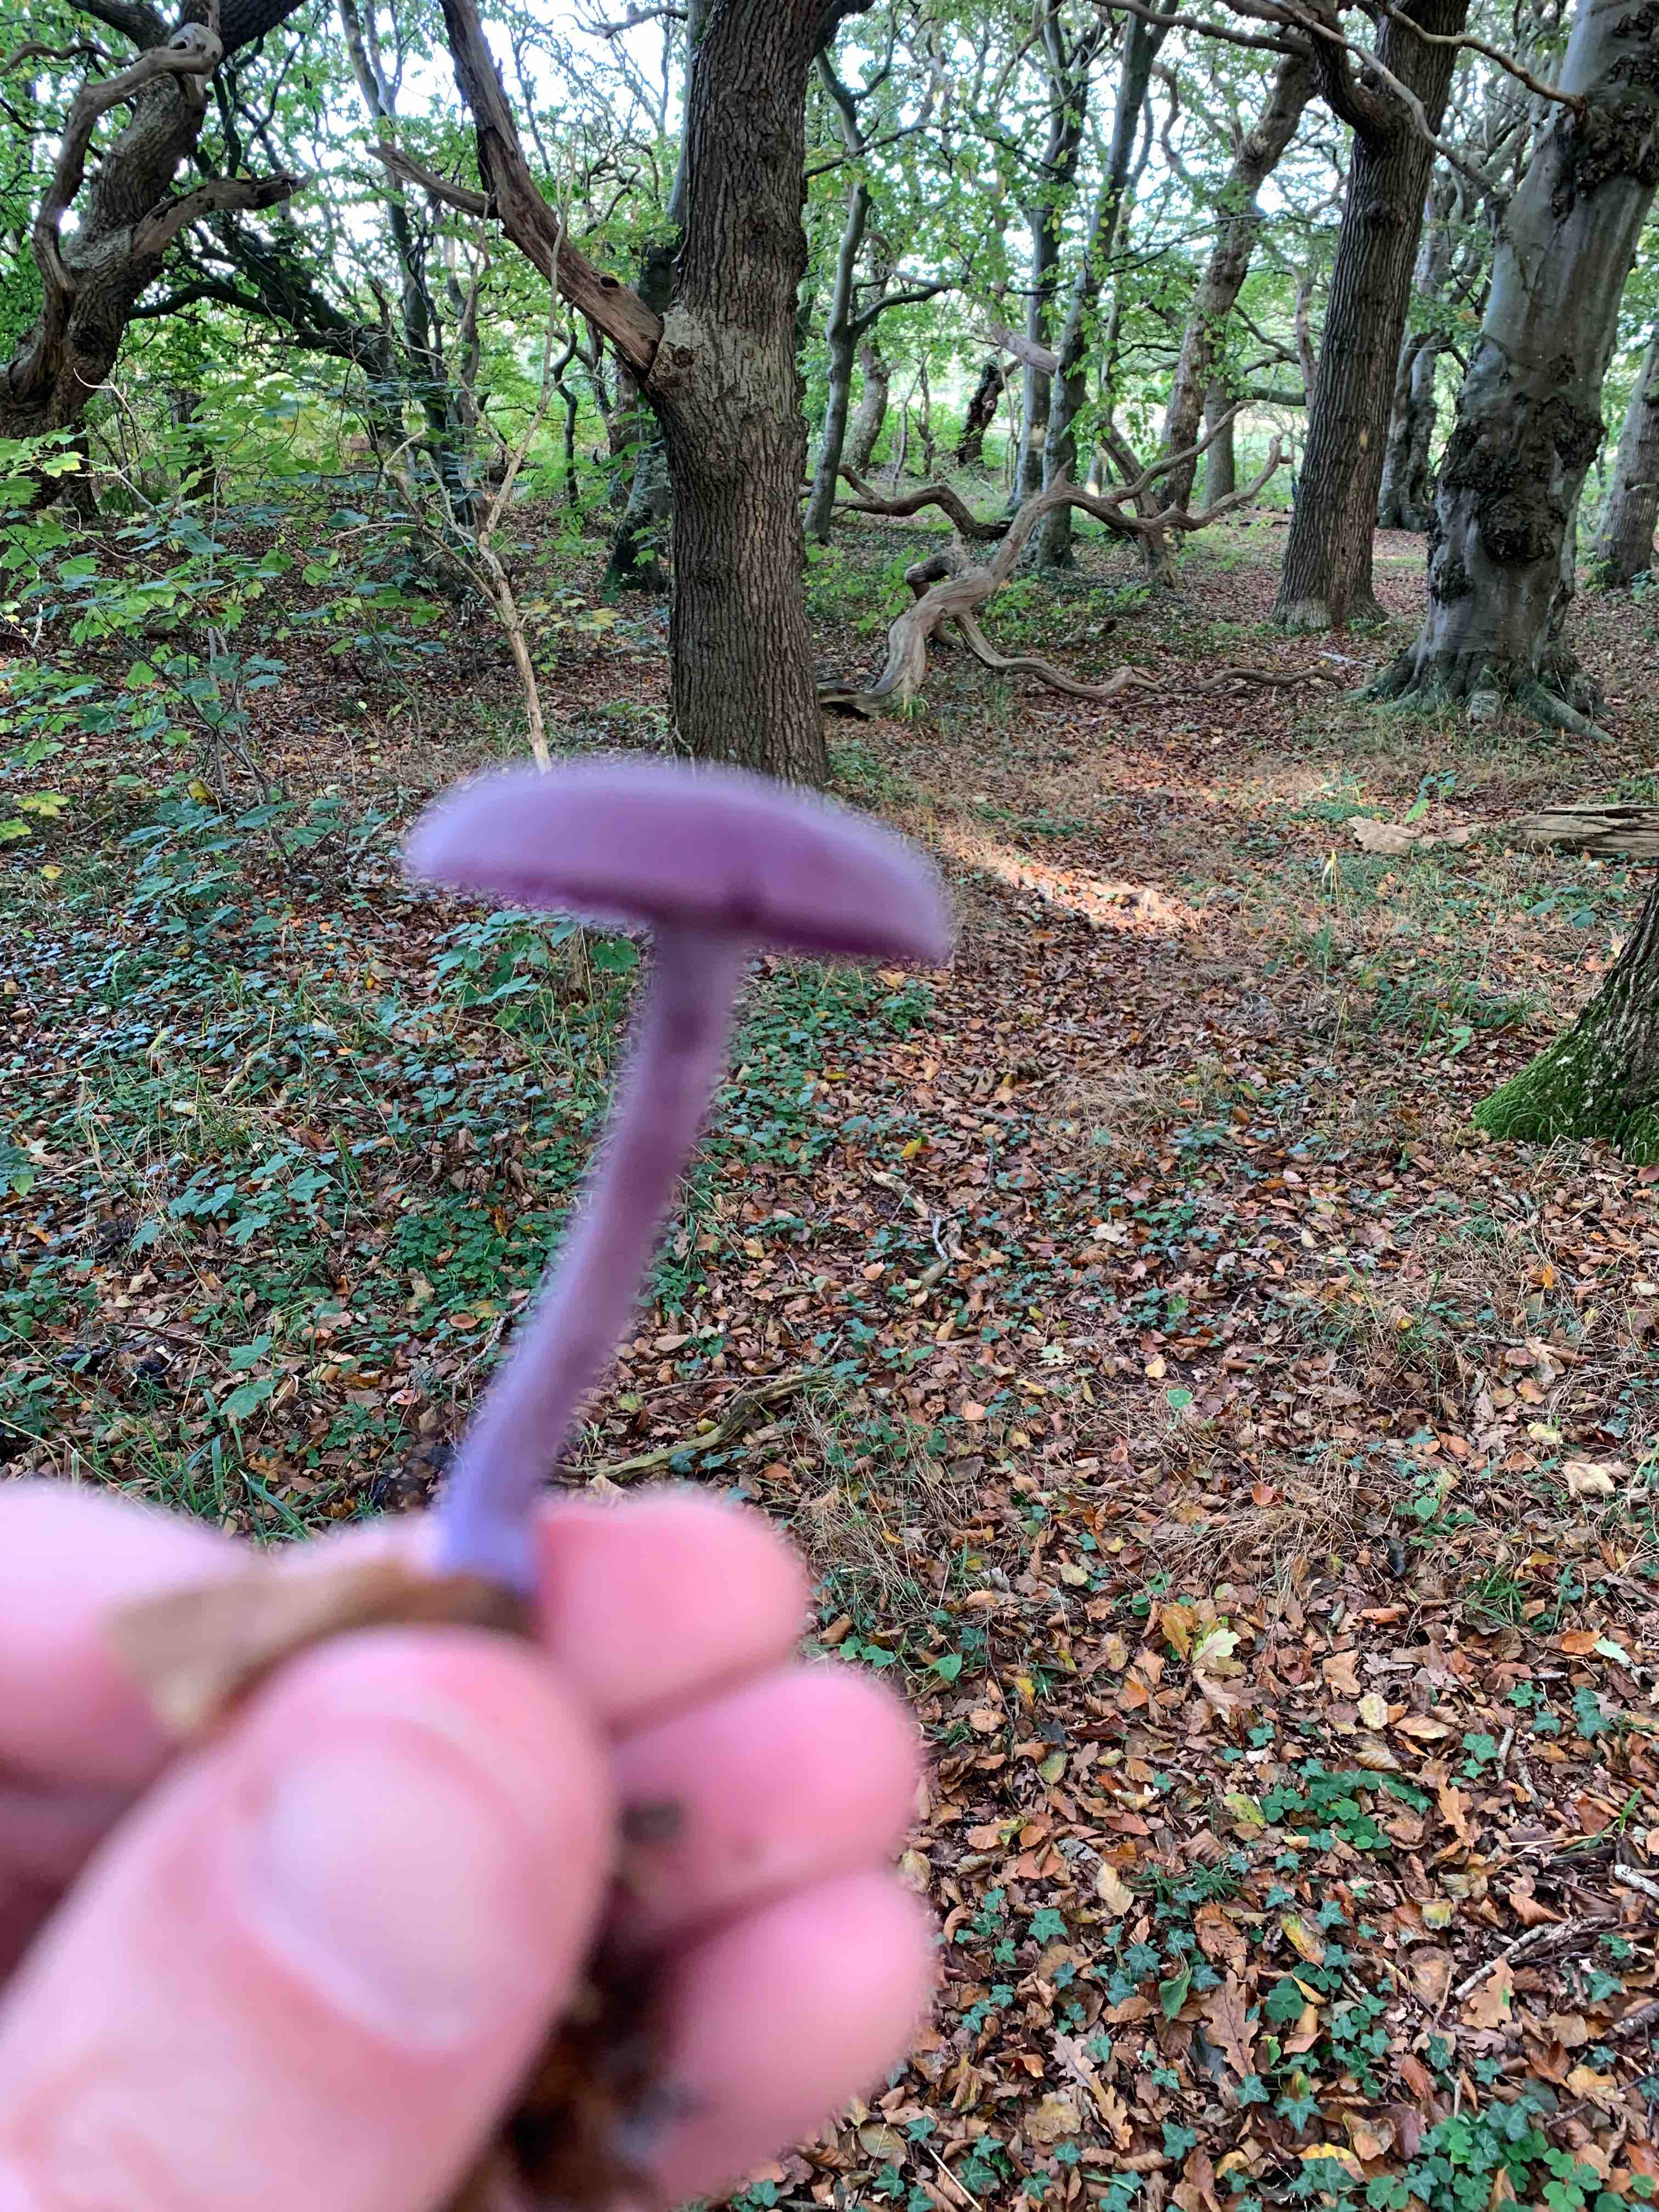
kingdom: Fungi
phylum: Basidiomycota
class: Agaricomycetes
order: Agaricales
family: Hydnangiaceae
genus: Laccaria
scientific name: Laccaria amethystina
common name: violet ametysthat
